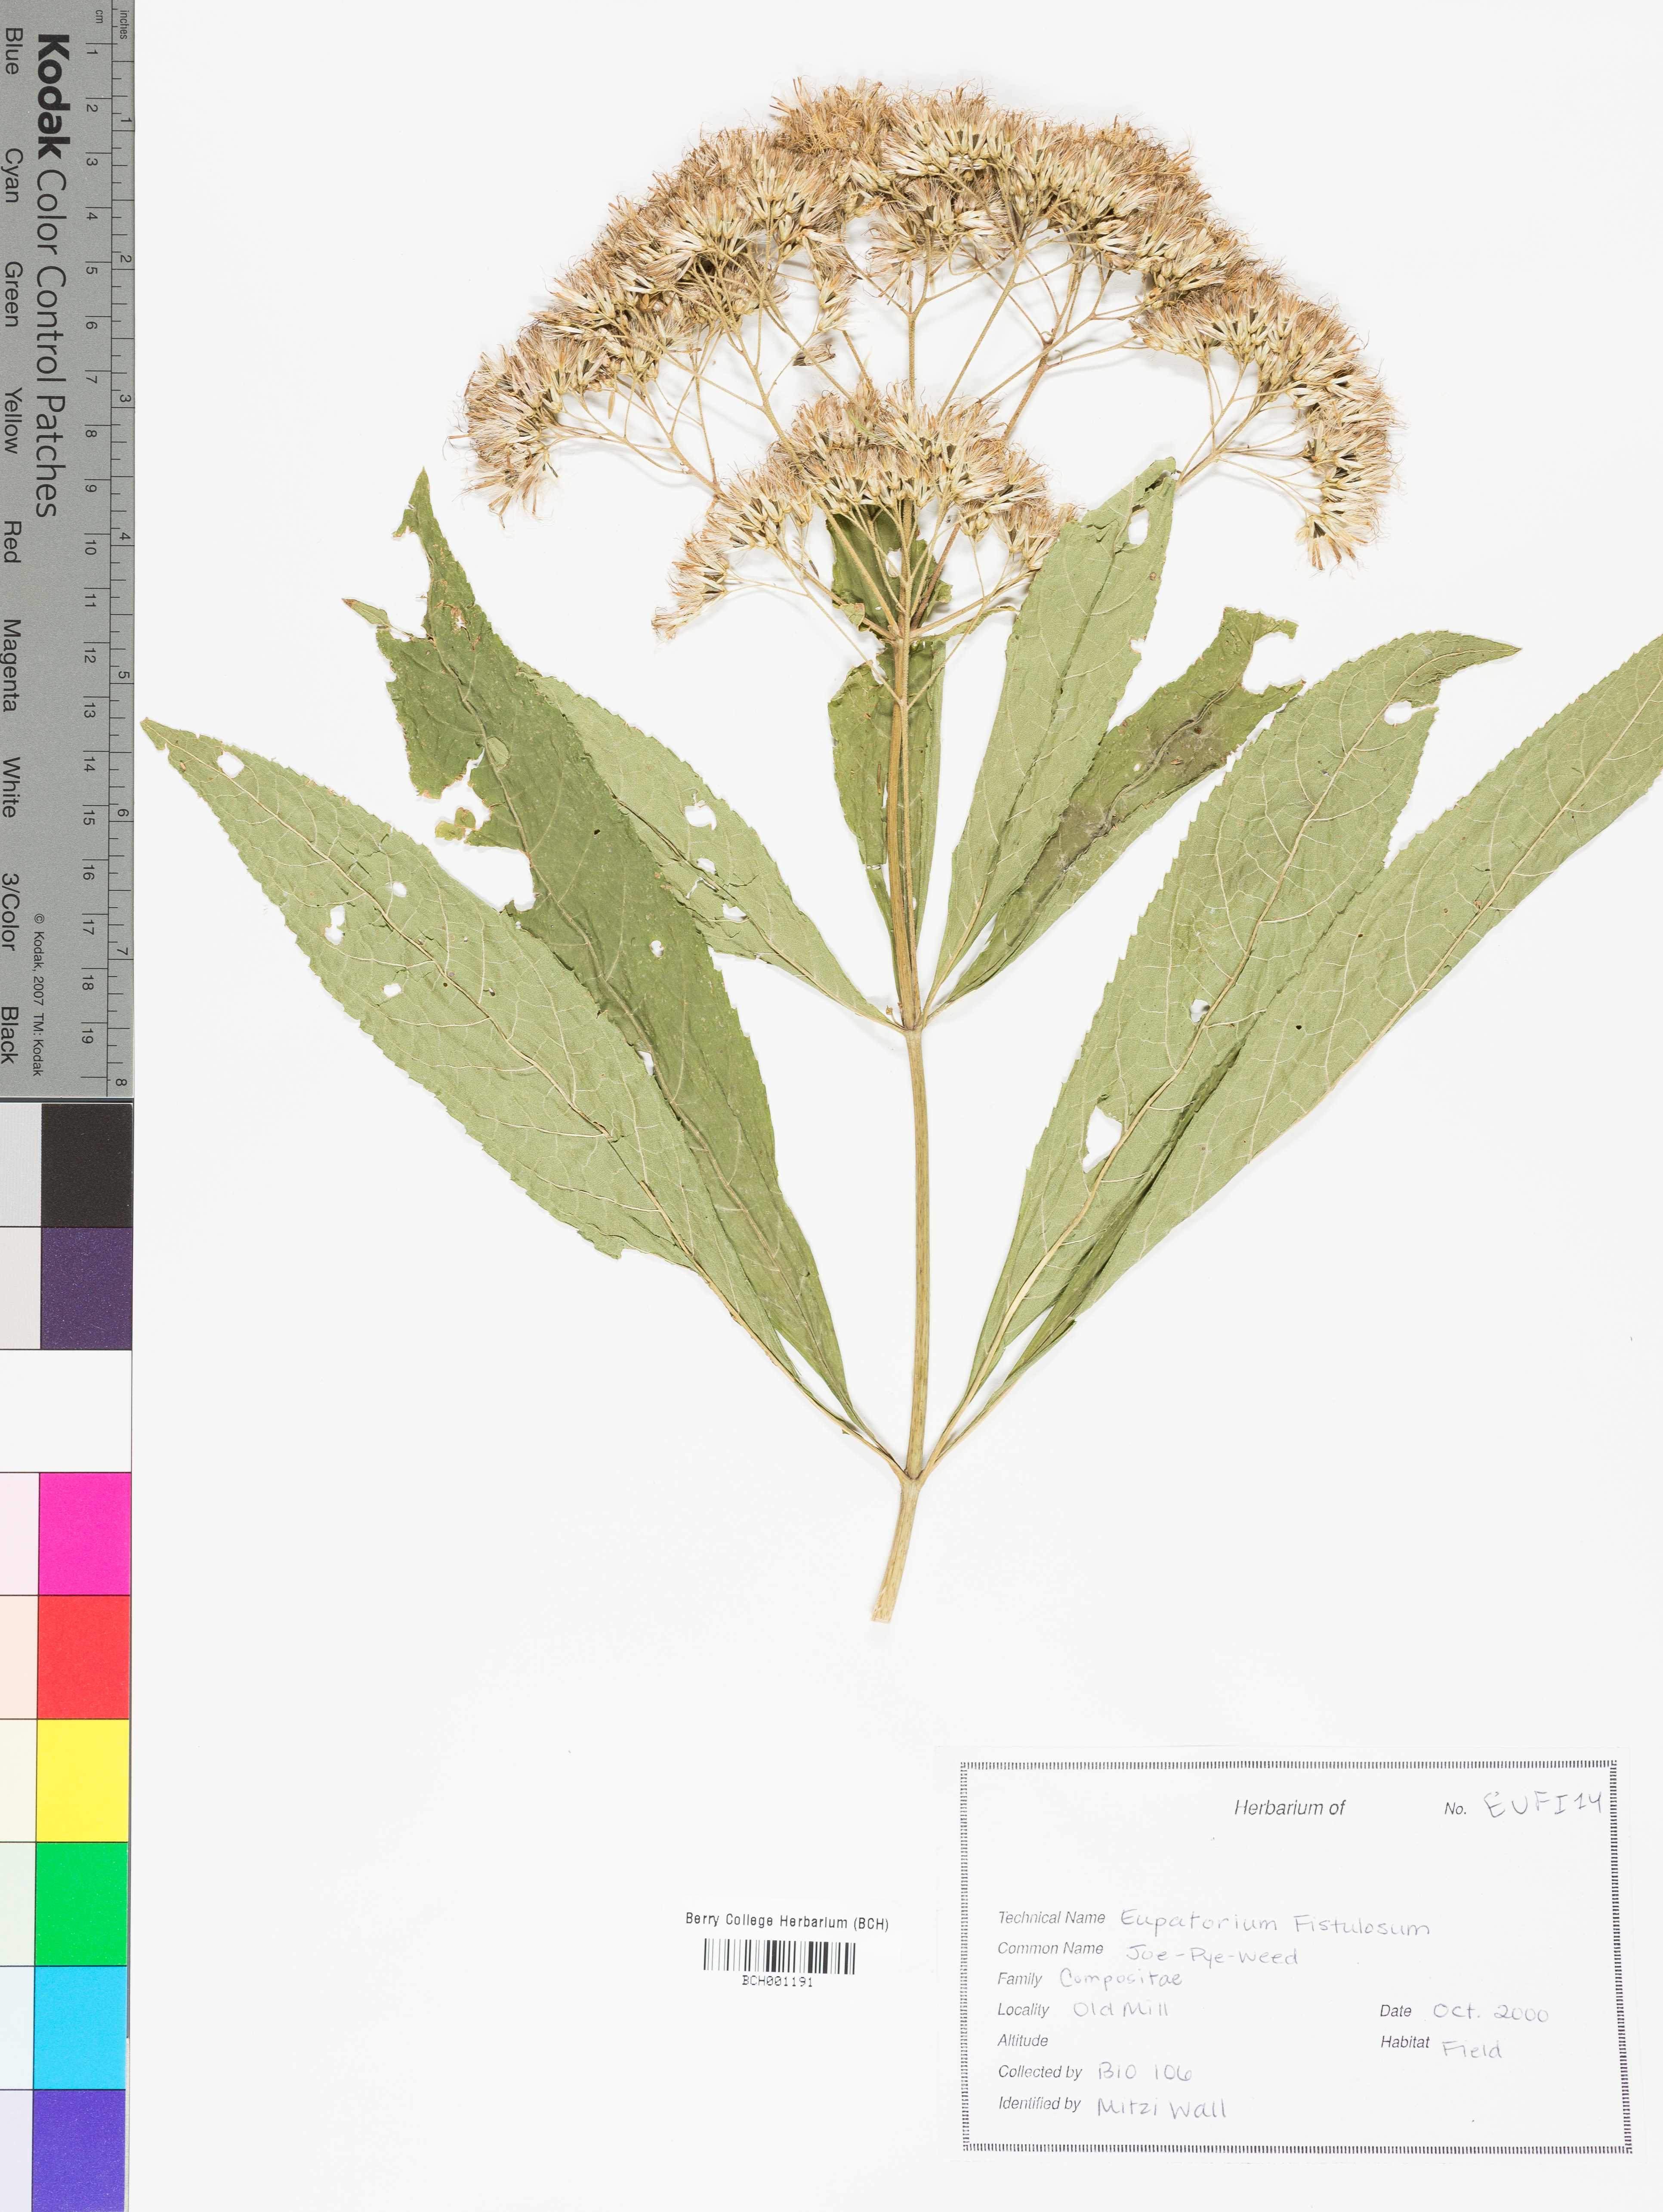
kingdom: Plantae
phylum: Tracheophyta
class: Magnoliopsida
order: Asterales
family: Asteraceae
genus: Eutrochium
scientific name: Eutrochium
